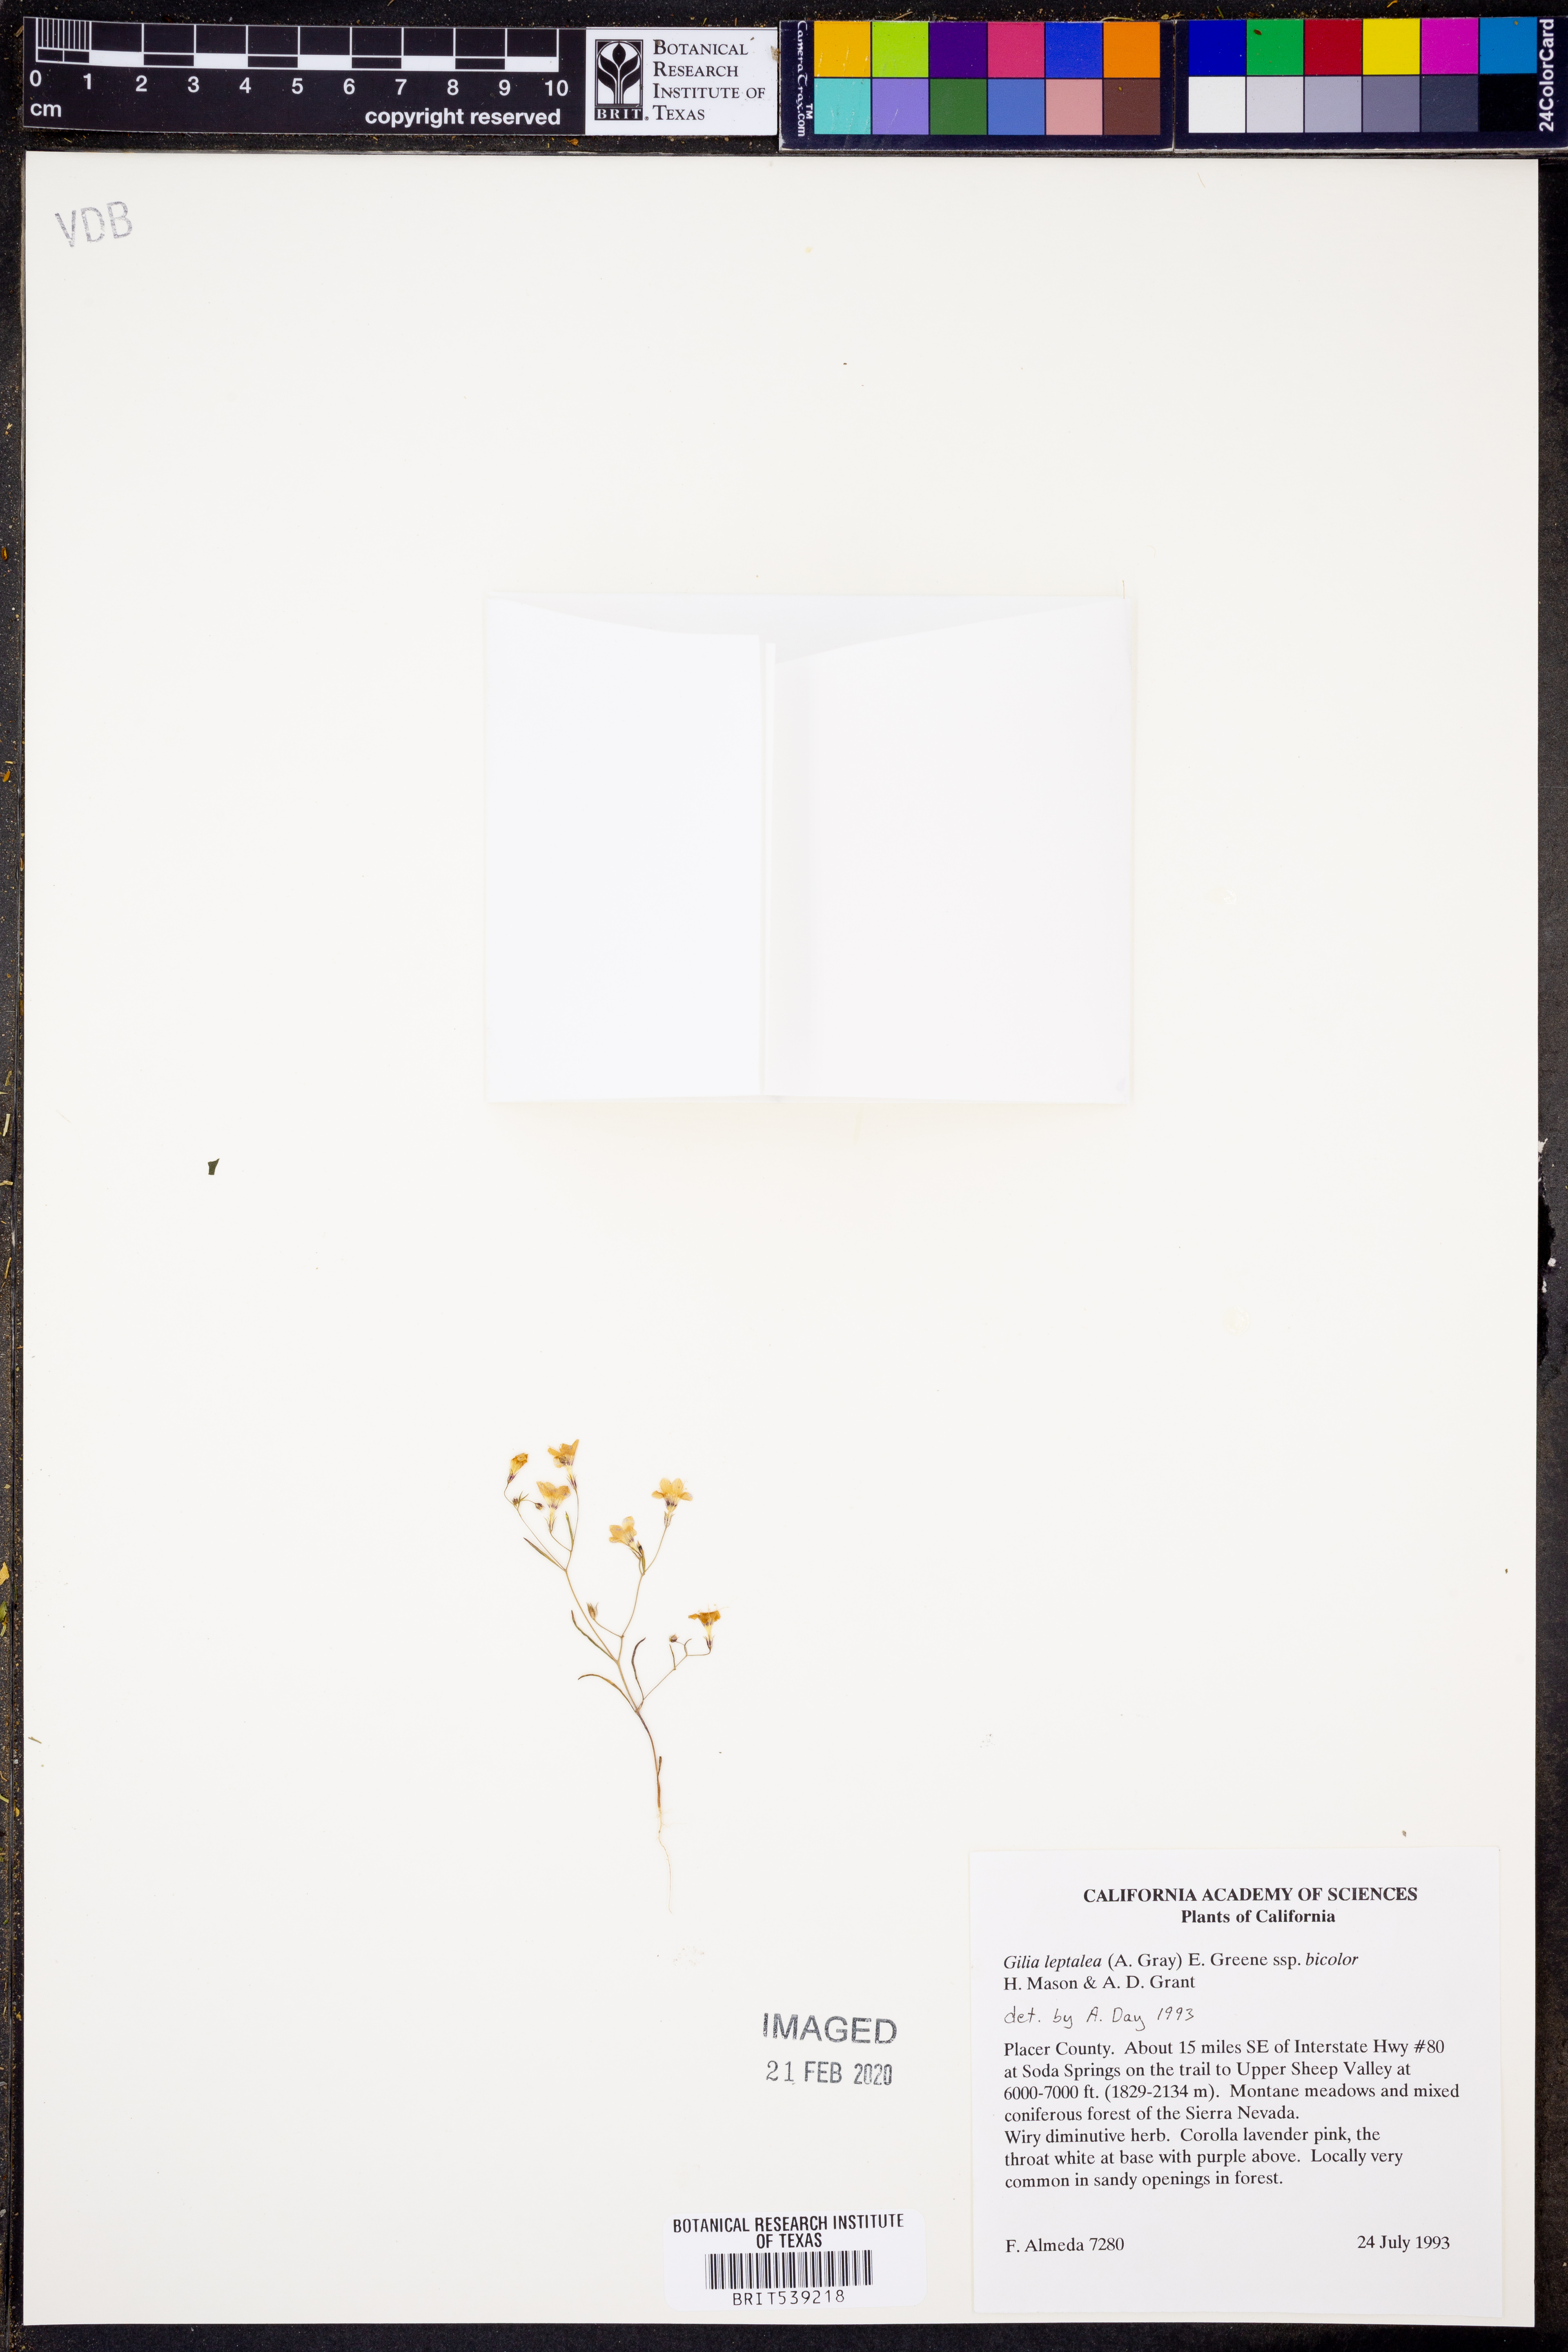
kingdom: Plantae
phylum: Tracheophyta
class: Magnoliopsida
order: Ericales
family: Polemoniaceae
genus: Navarretia
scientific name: Navarretia leptalea
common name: Bridges' pincushionplant
